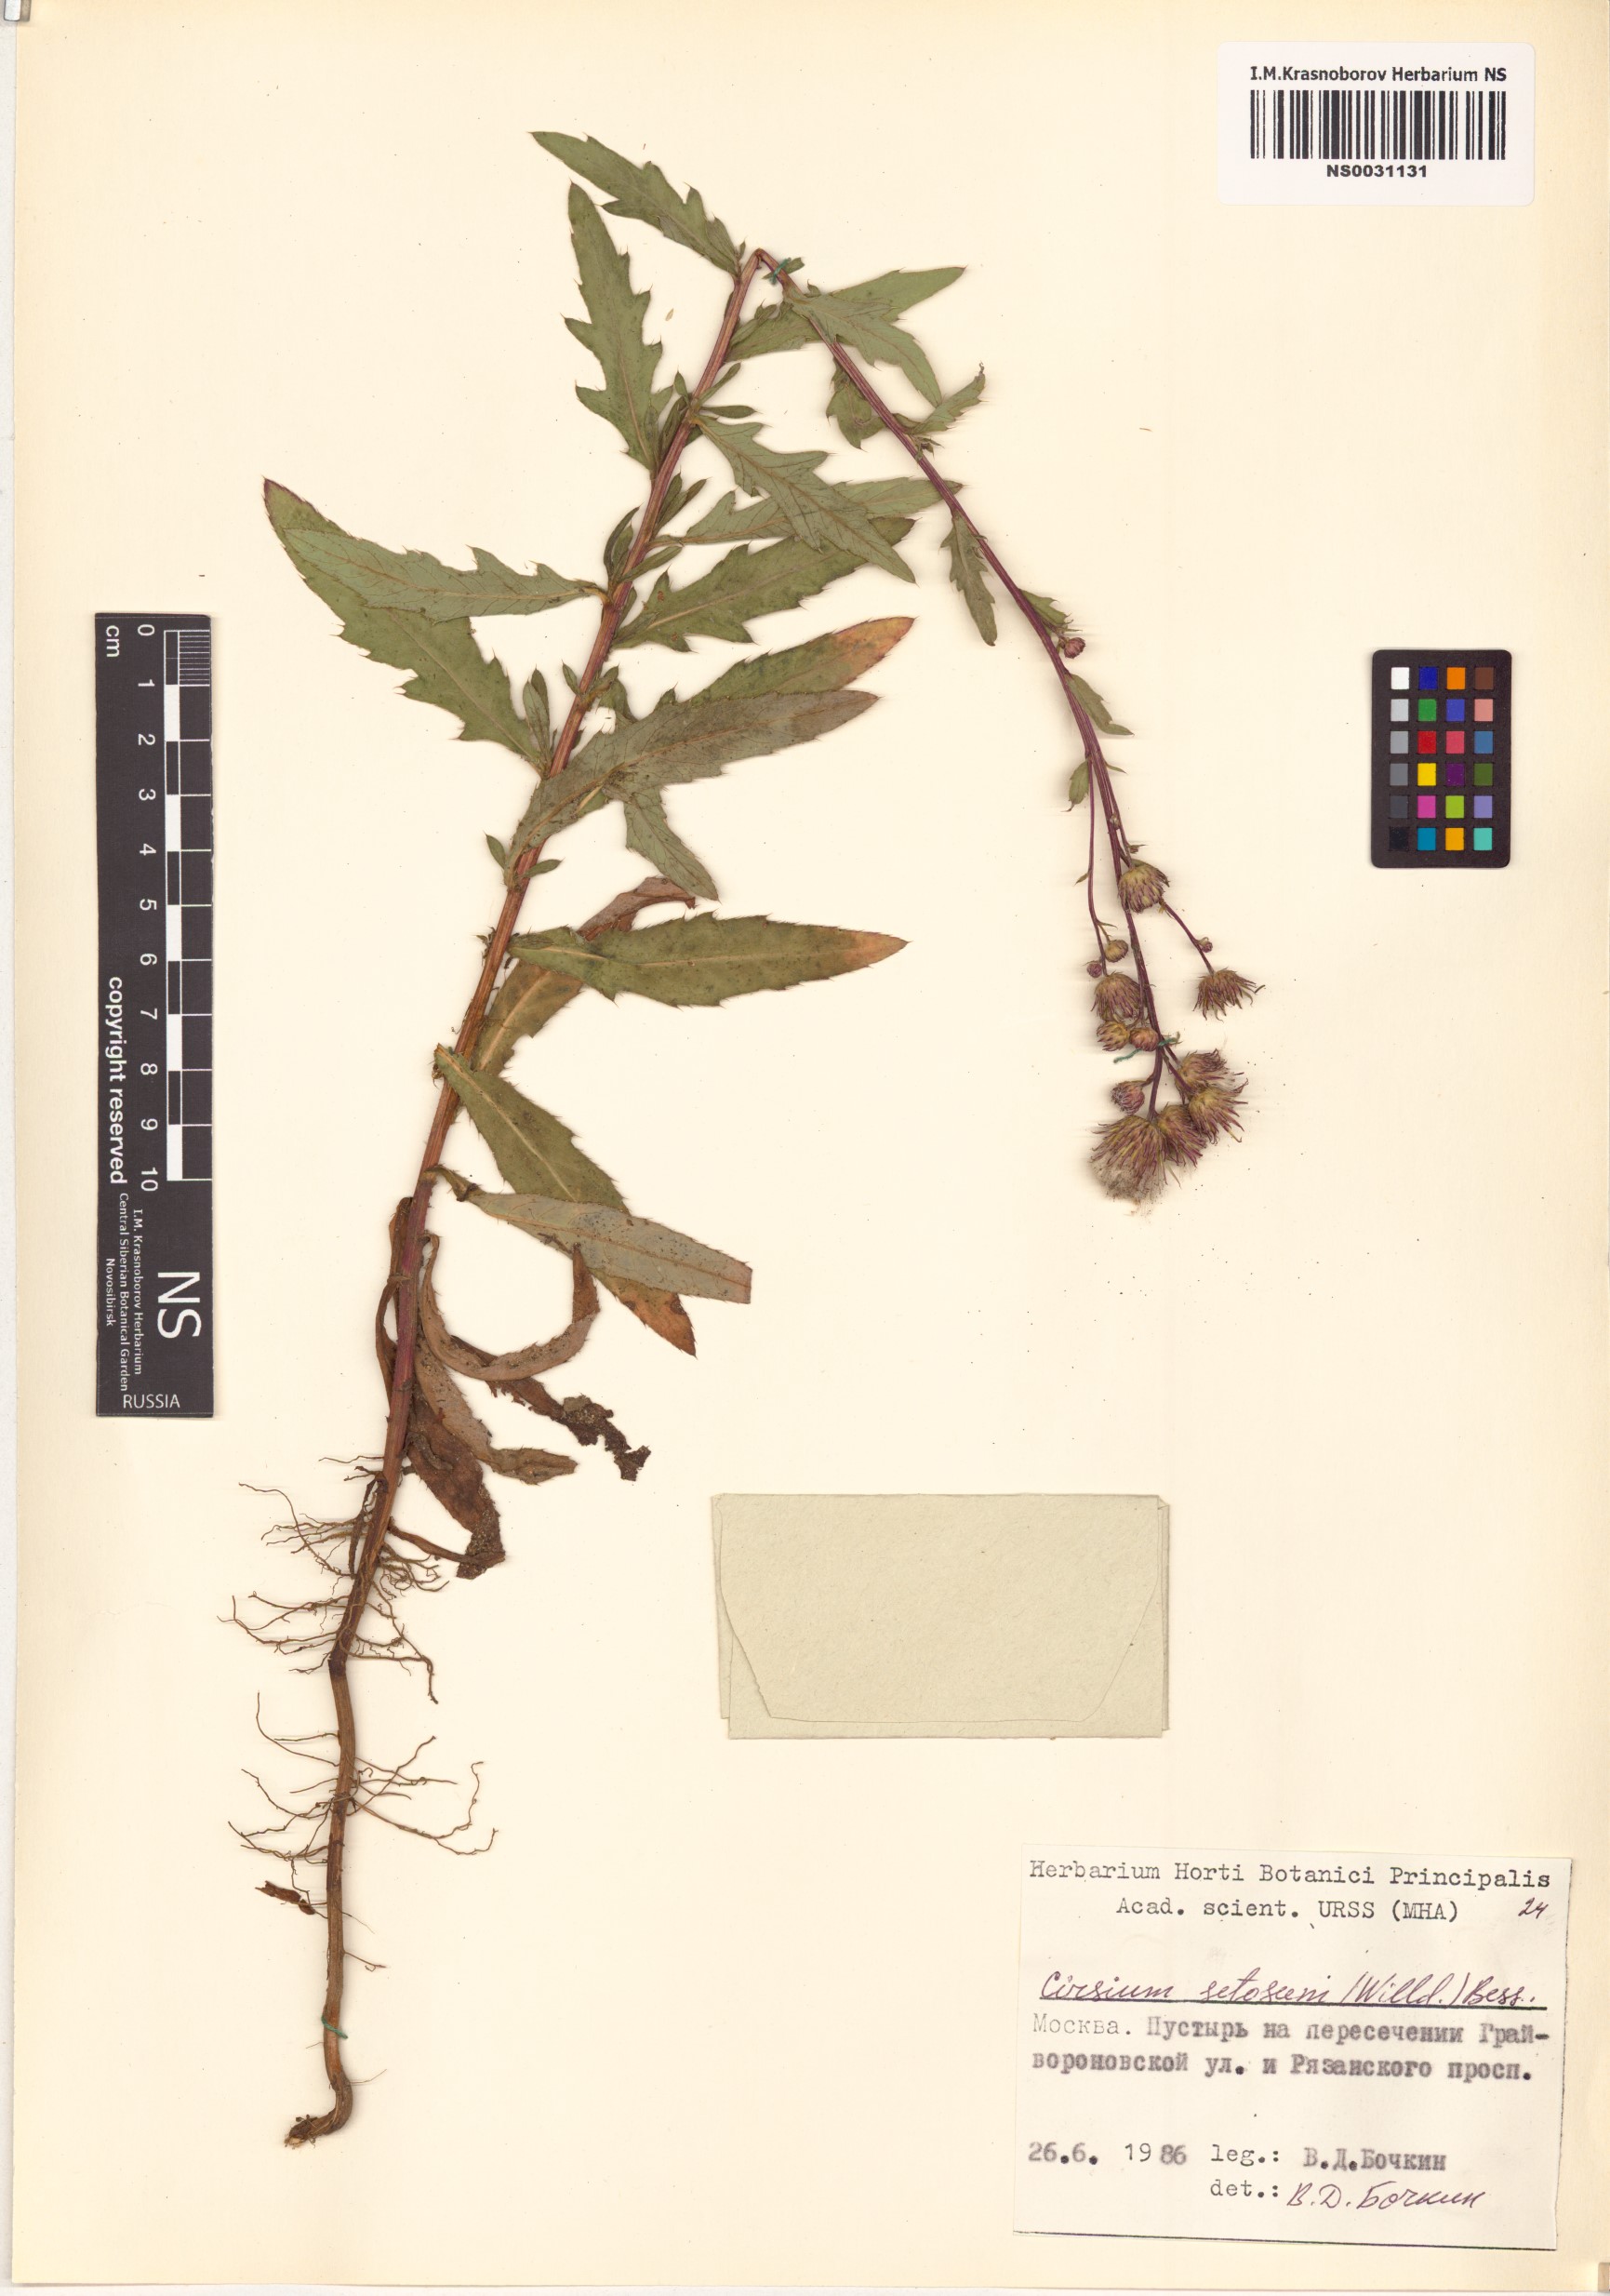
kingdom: Plantae
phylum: Tracheophyta
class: Magnoliopsida
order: Asterales
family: Asteraceae
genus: Cirsium
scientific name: Cirsium arvense
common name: Creeping thistle
